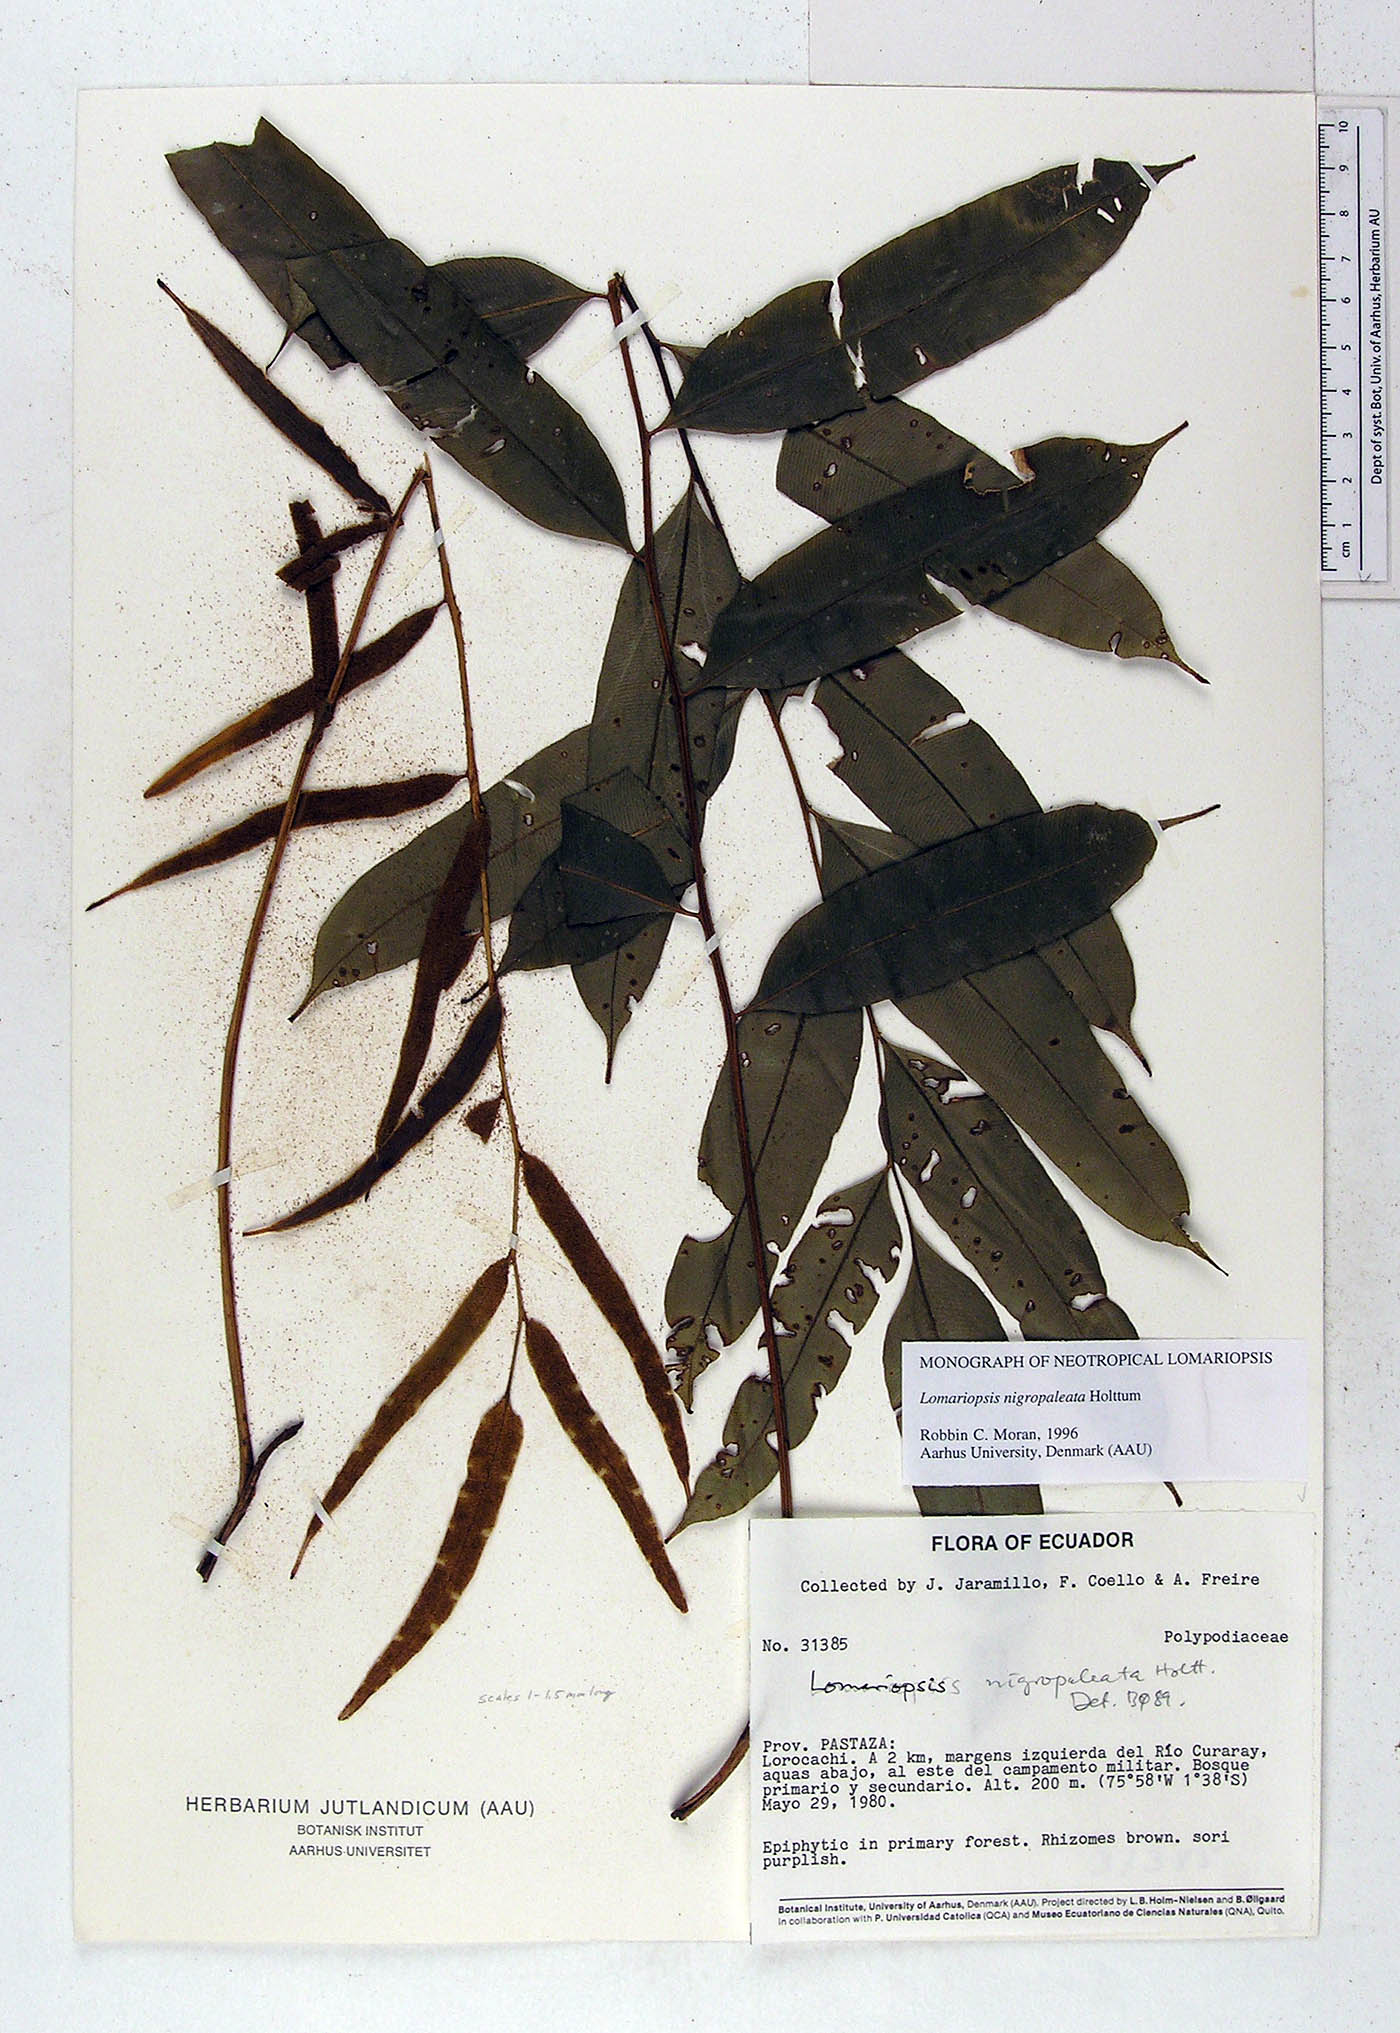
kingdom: Plantae
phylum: Tracheophyta
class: Polypodiopsida
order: Polypodiales
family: Lomariopsidaceae
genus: Lomariopsis
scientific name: Lomariopsis nigropaleata
